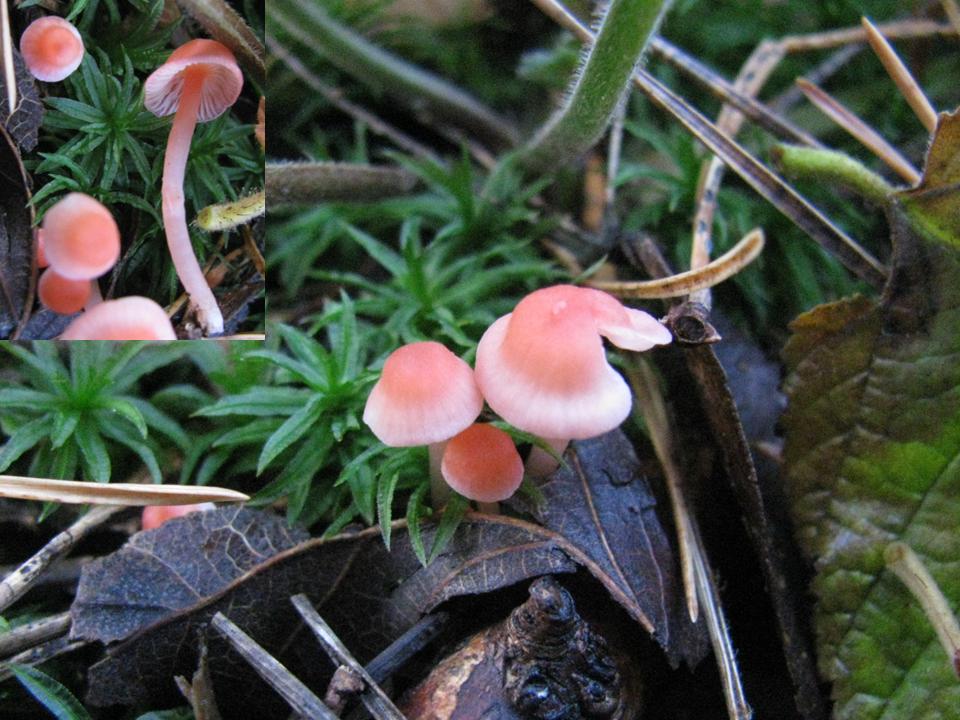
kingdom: Fungi
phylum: Basidiomycota
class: Agaricomycetes
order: Agaricales
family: Mycenaceae
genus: Atheniella
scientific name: Atheniella adonis
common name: rønnerød huesvamp
